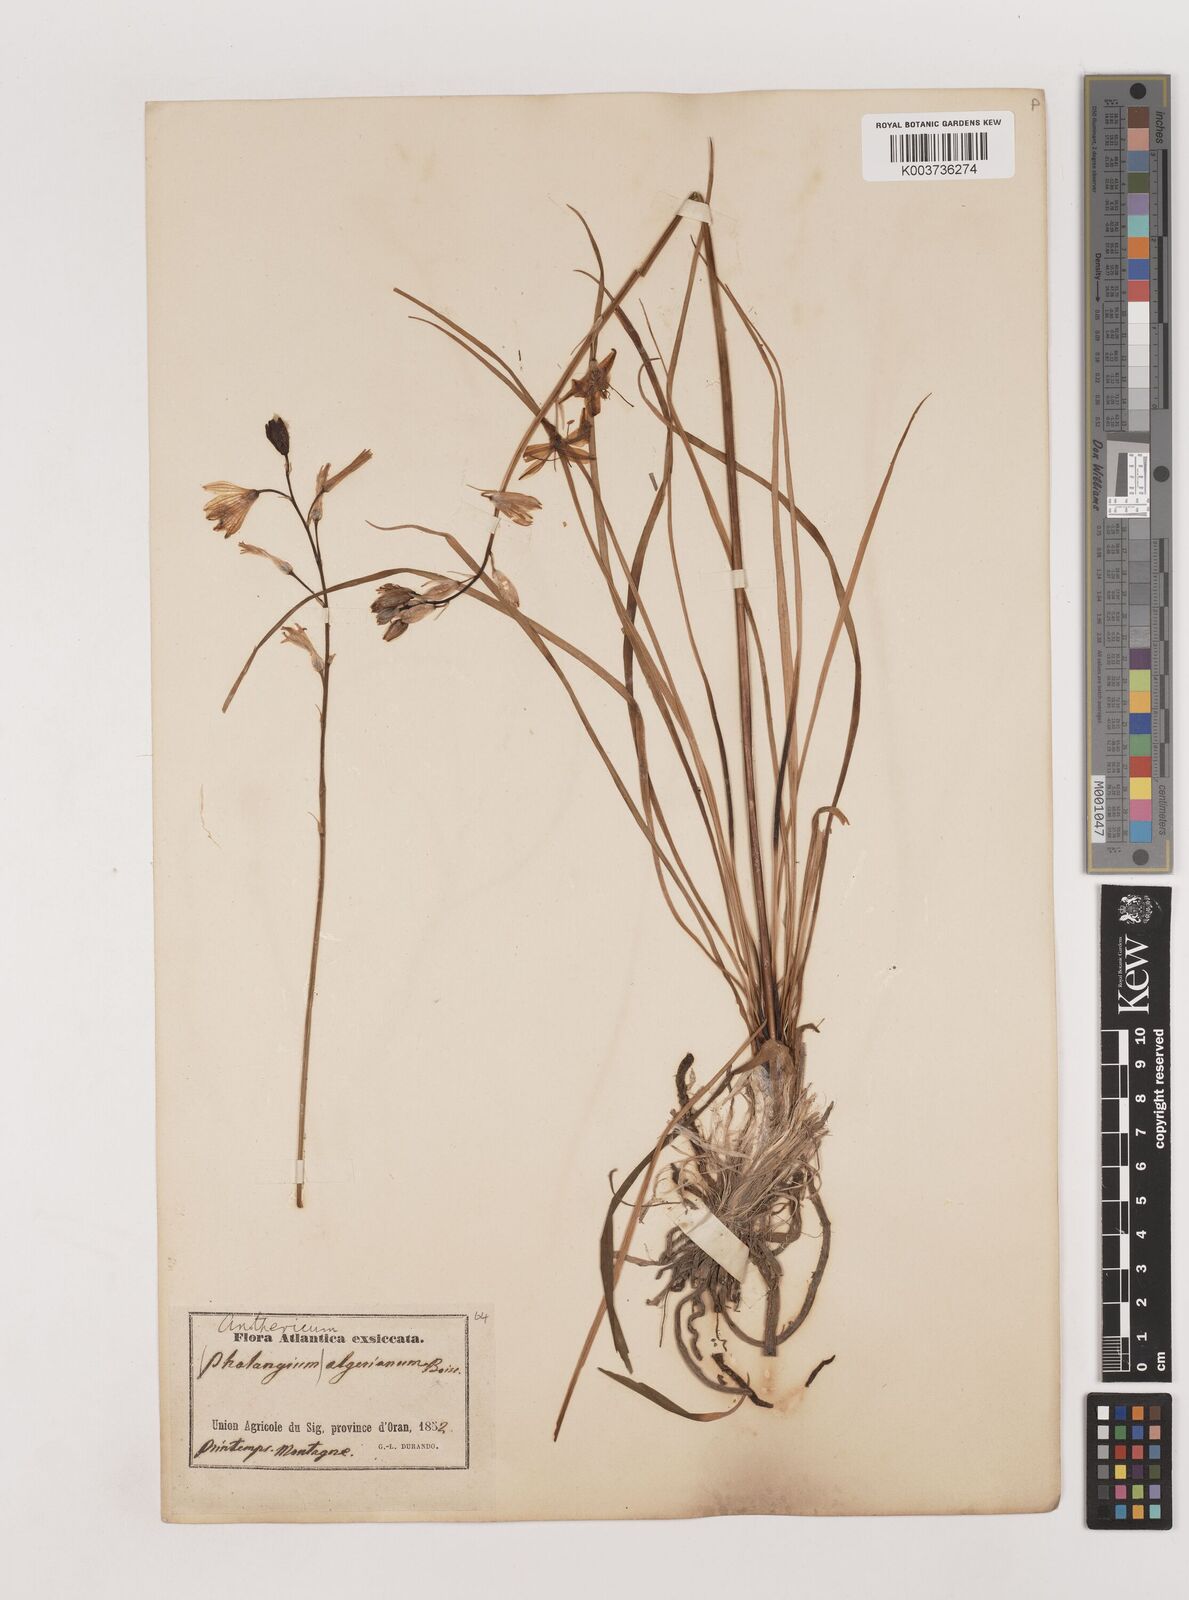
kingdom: Plantae
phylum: Tracheophyta
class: Liliopsida
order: Asparagales
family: Asparagaceae
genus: Anthericum
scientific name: Anthericum baeticum
